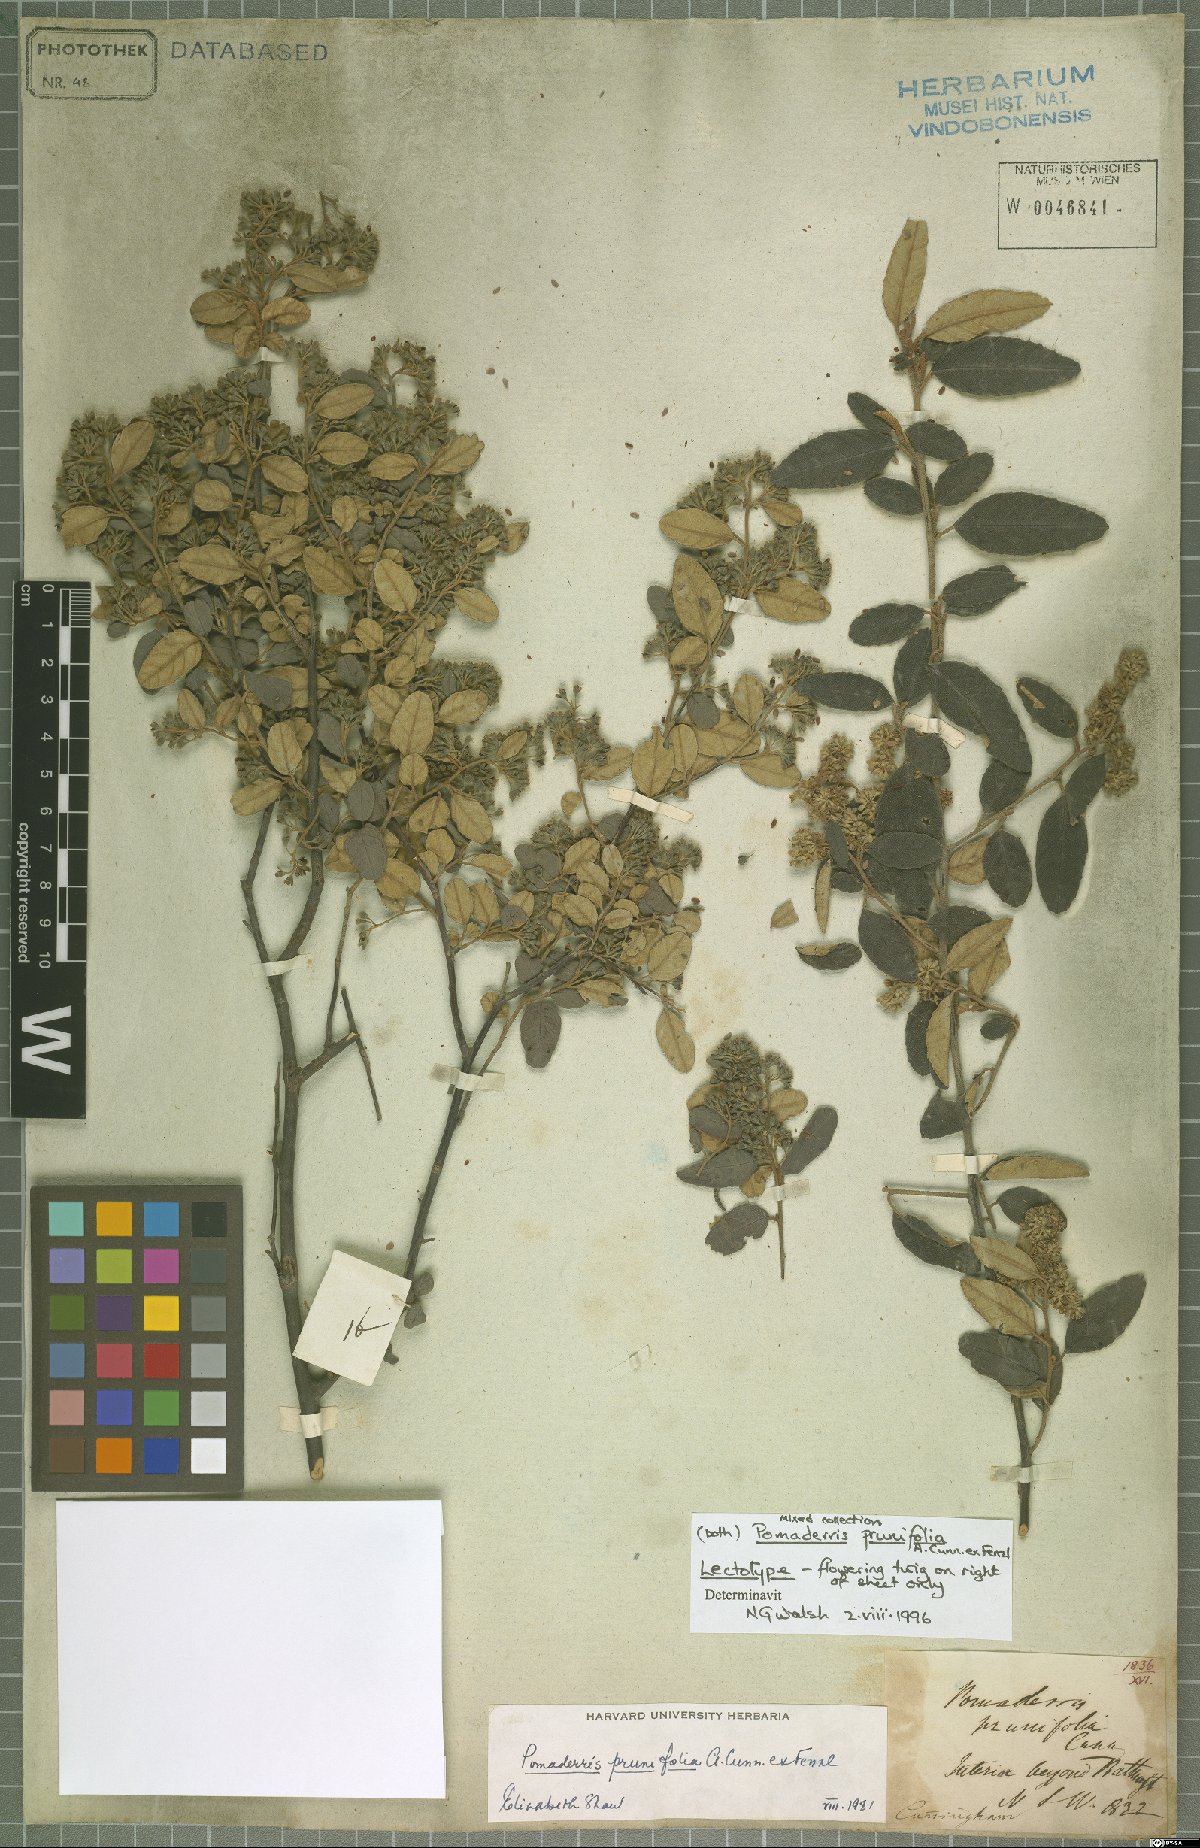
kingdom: Plantae
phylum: Tracheophyta
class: Magnoliopsida
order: Rosales
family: Rhamnaceae
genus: Pomaderris
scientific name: Pomaderris prunifolia
